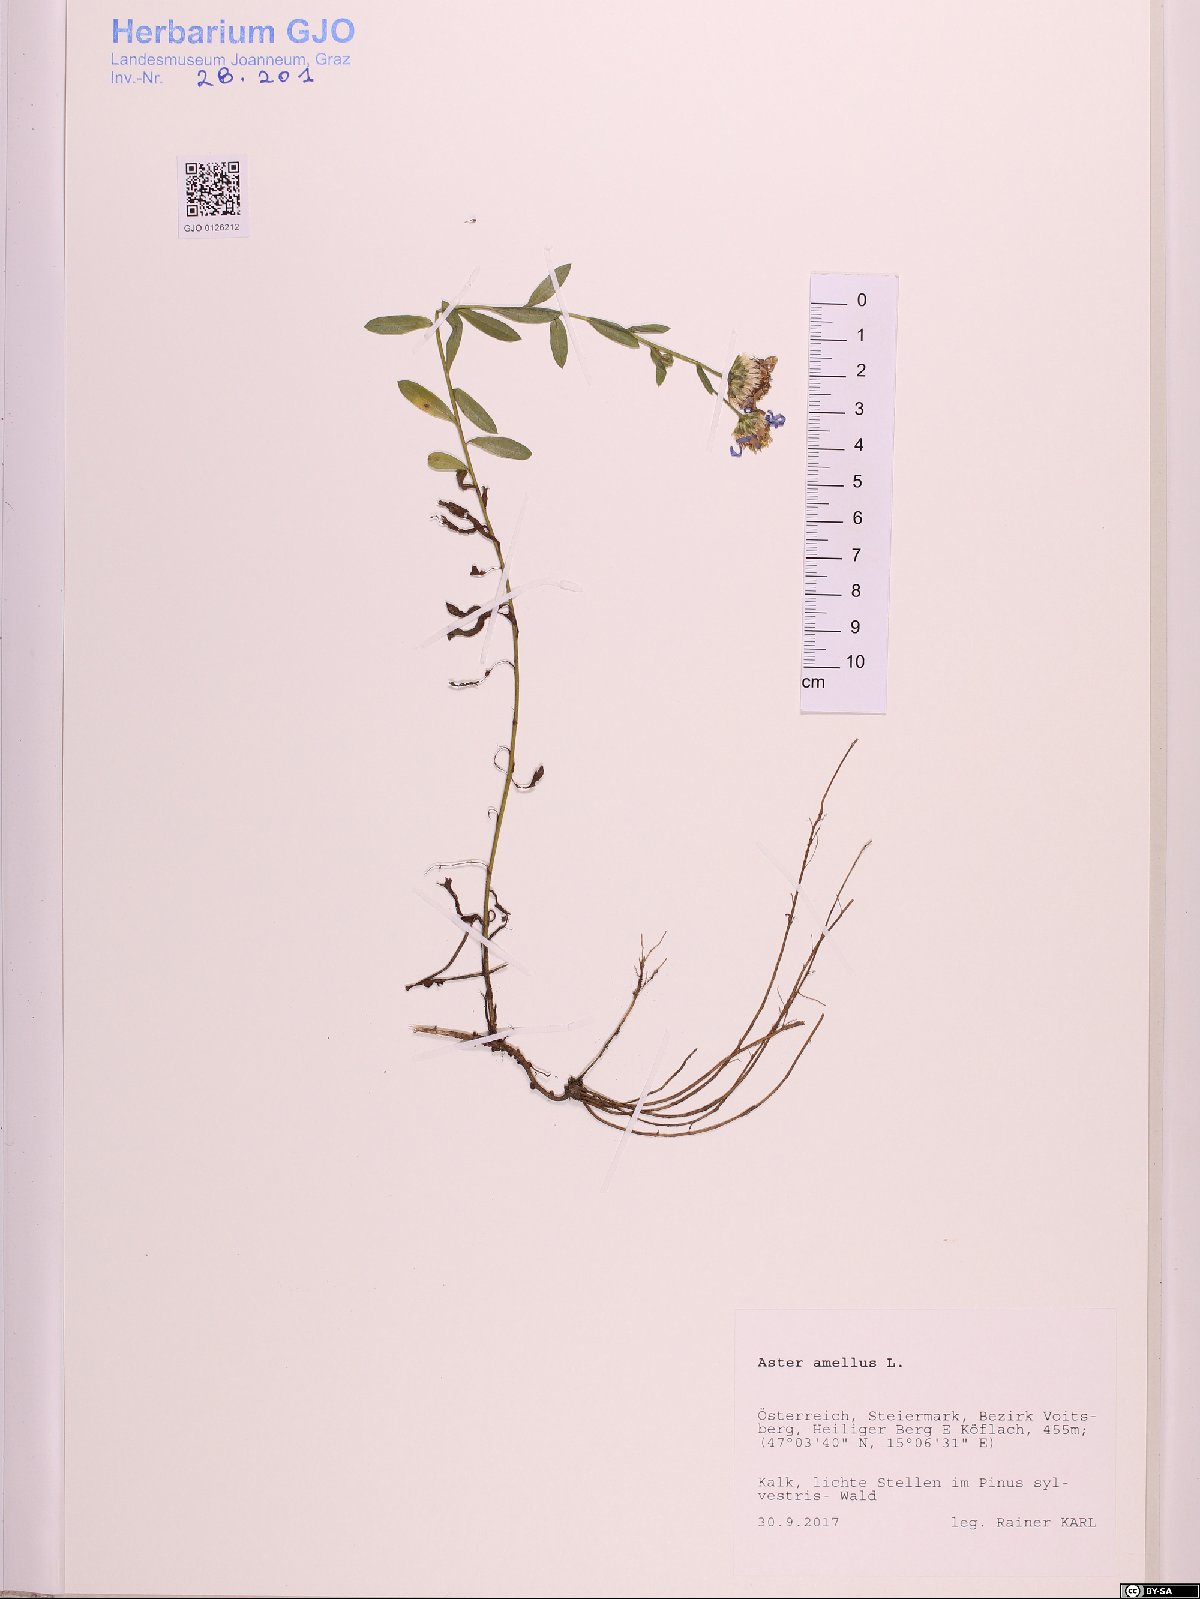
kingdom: Plantae
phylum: Tracheophyta
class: Magnoliopsida
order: Asterales
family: Asteraceae
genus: Aster
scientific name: Aster amellus
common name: European michaelmas daisy
